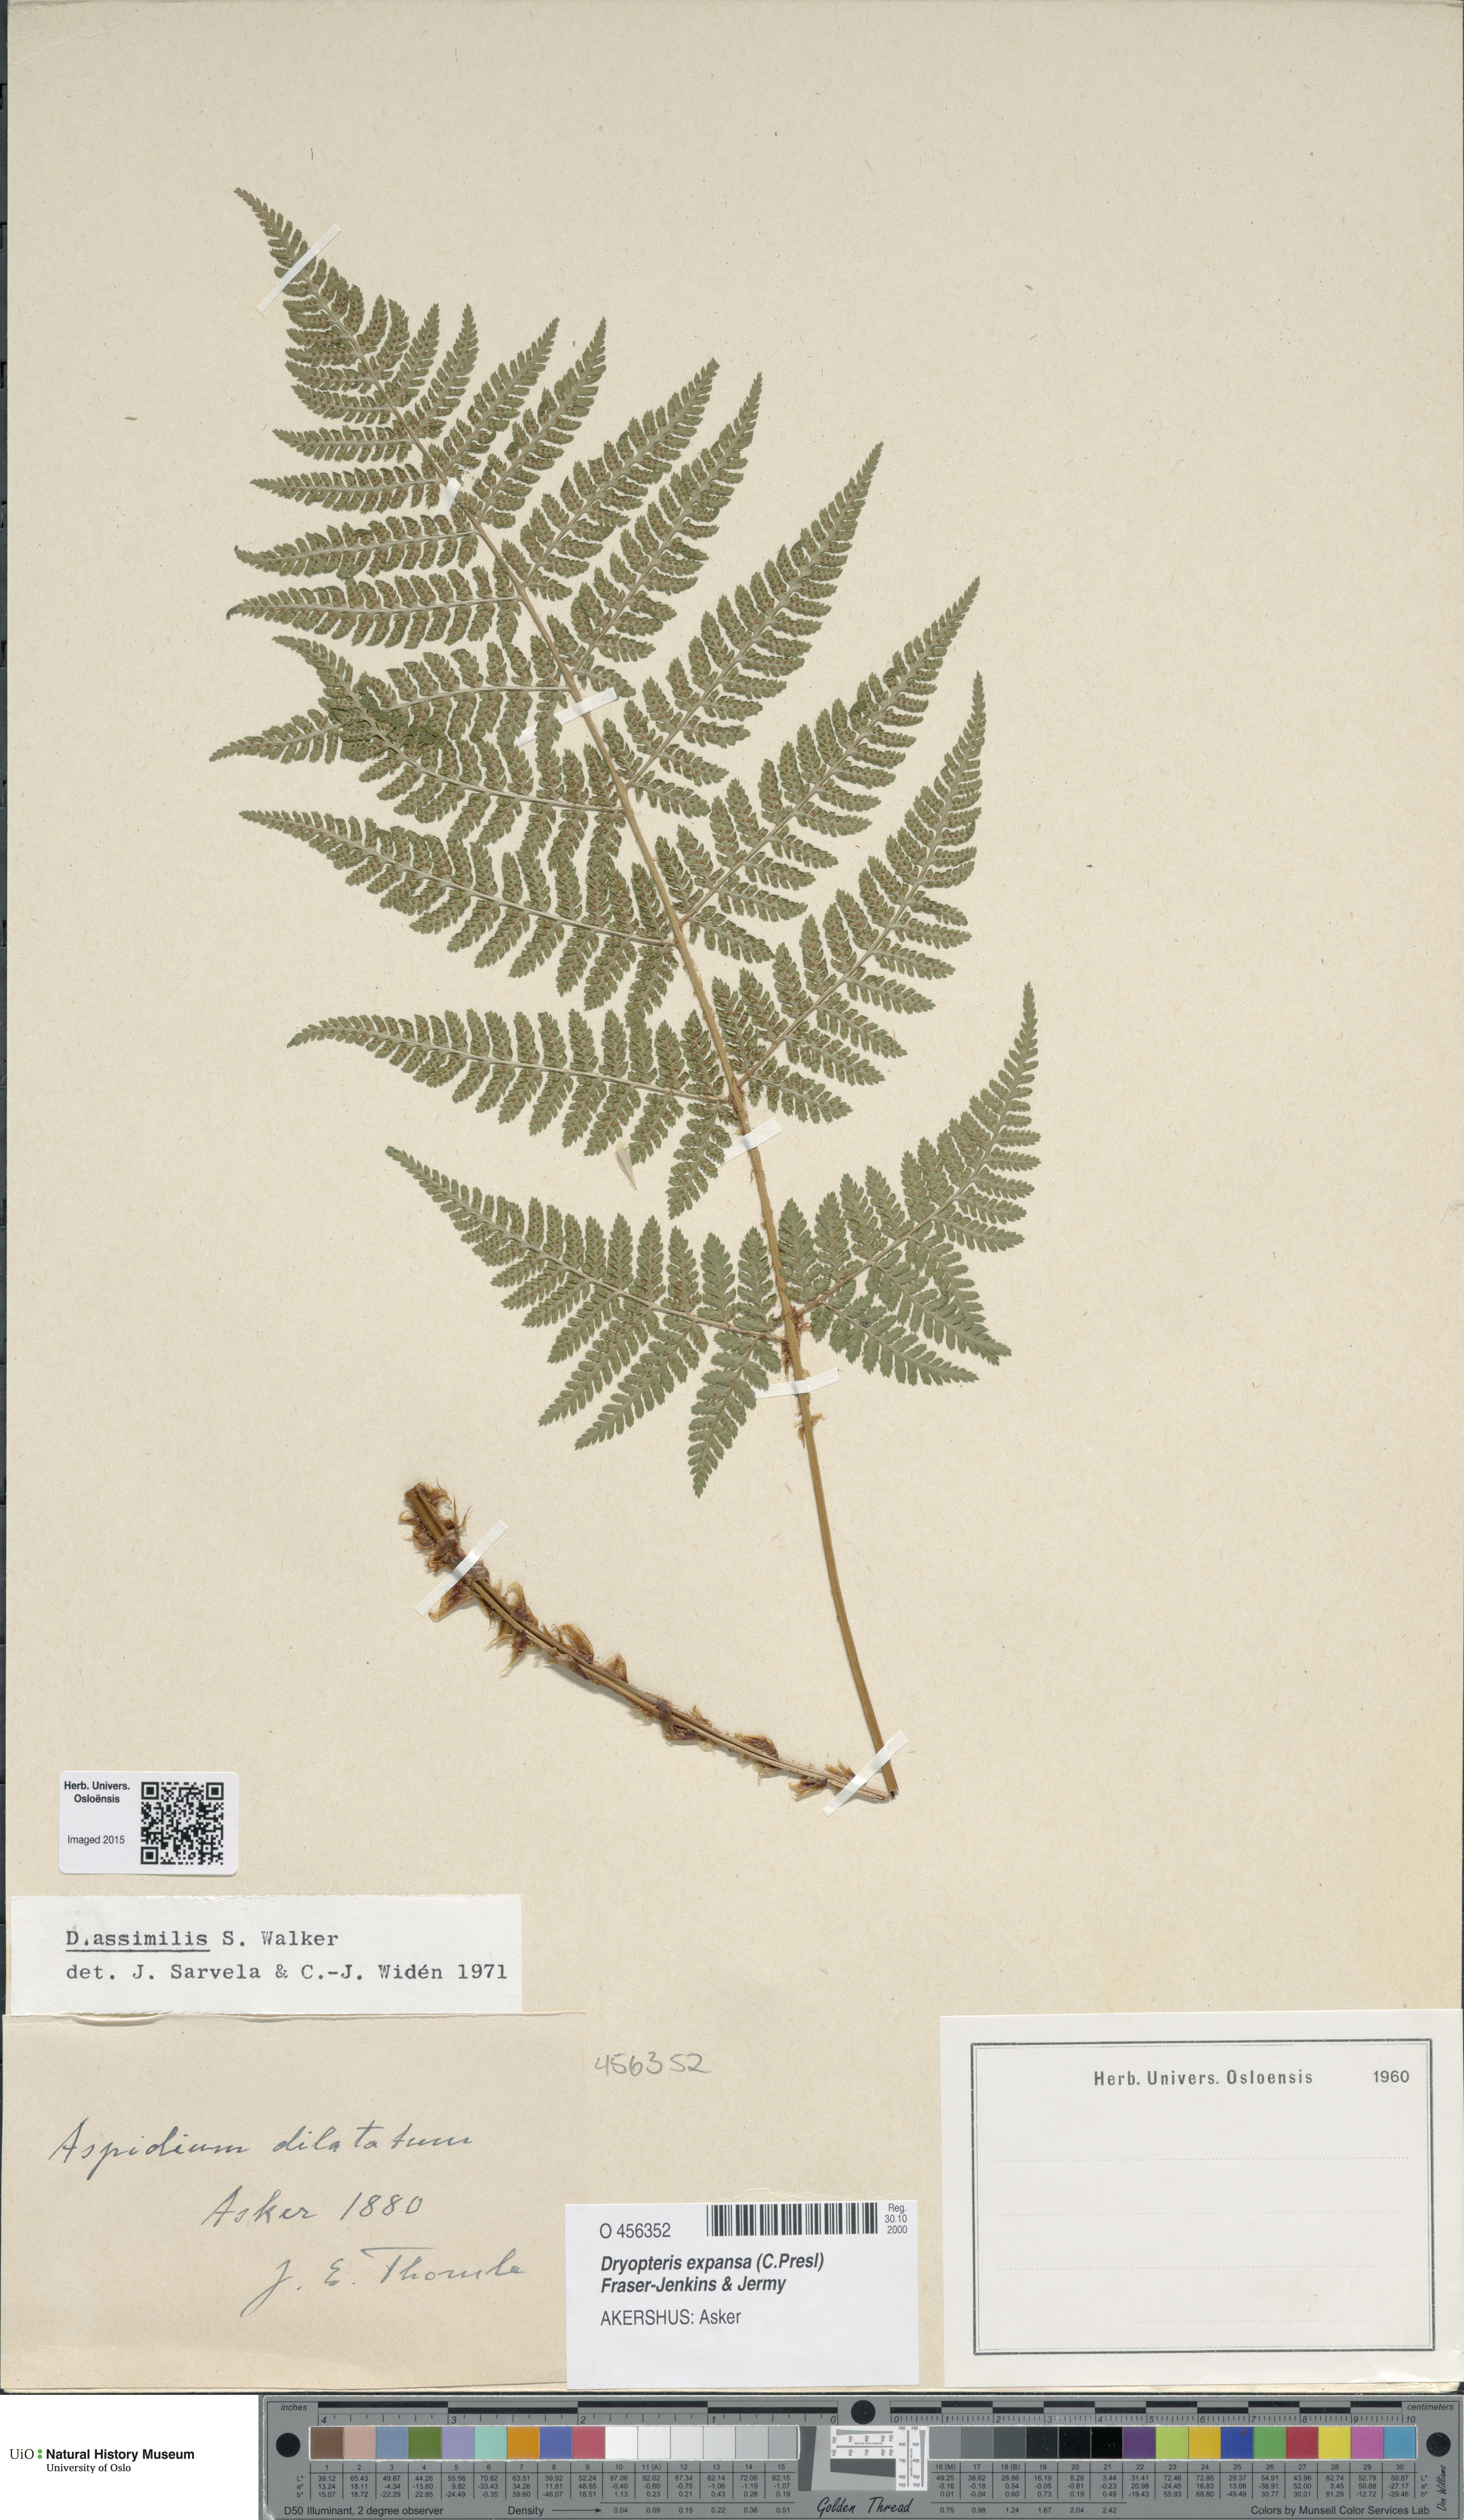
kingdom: Plantae
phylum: Tracheophyta
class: Polypodiopsida
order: Polypodiales
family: Dryopteridaceae
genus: Dryopteris
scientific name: Dryopteris expansa
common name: Northern buckler fern
